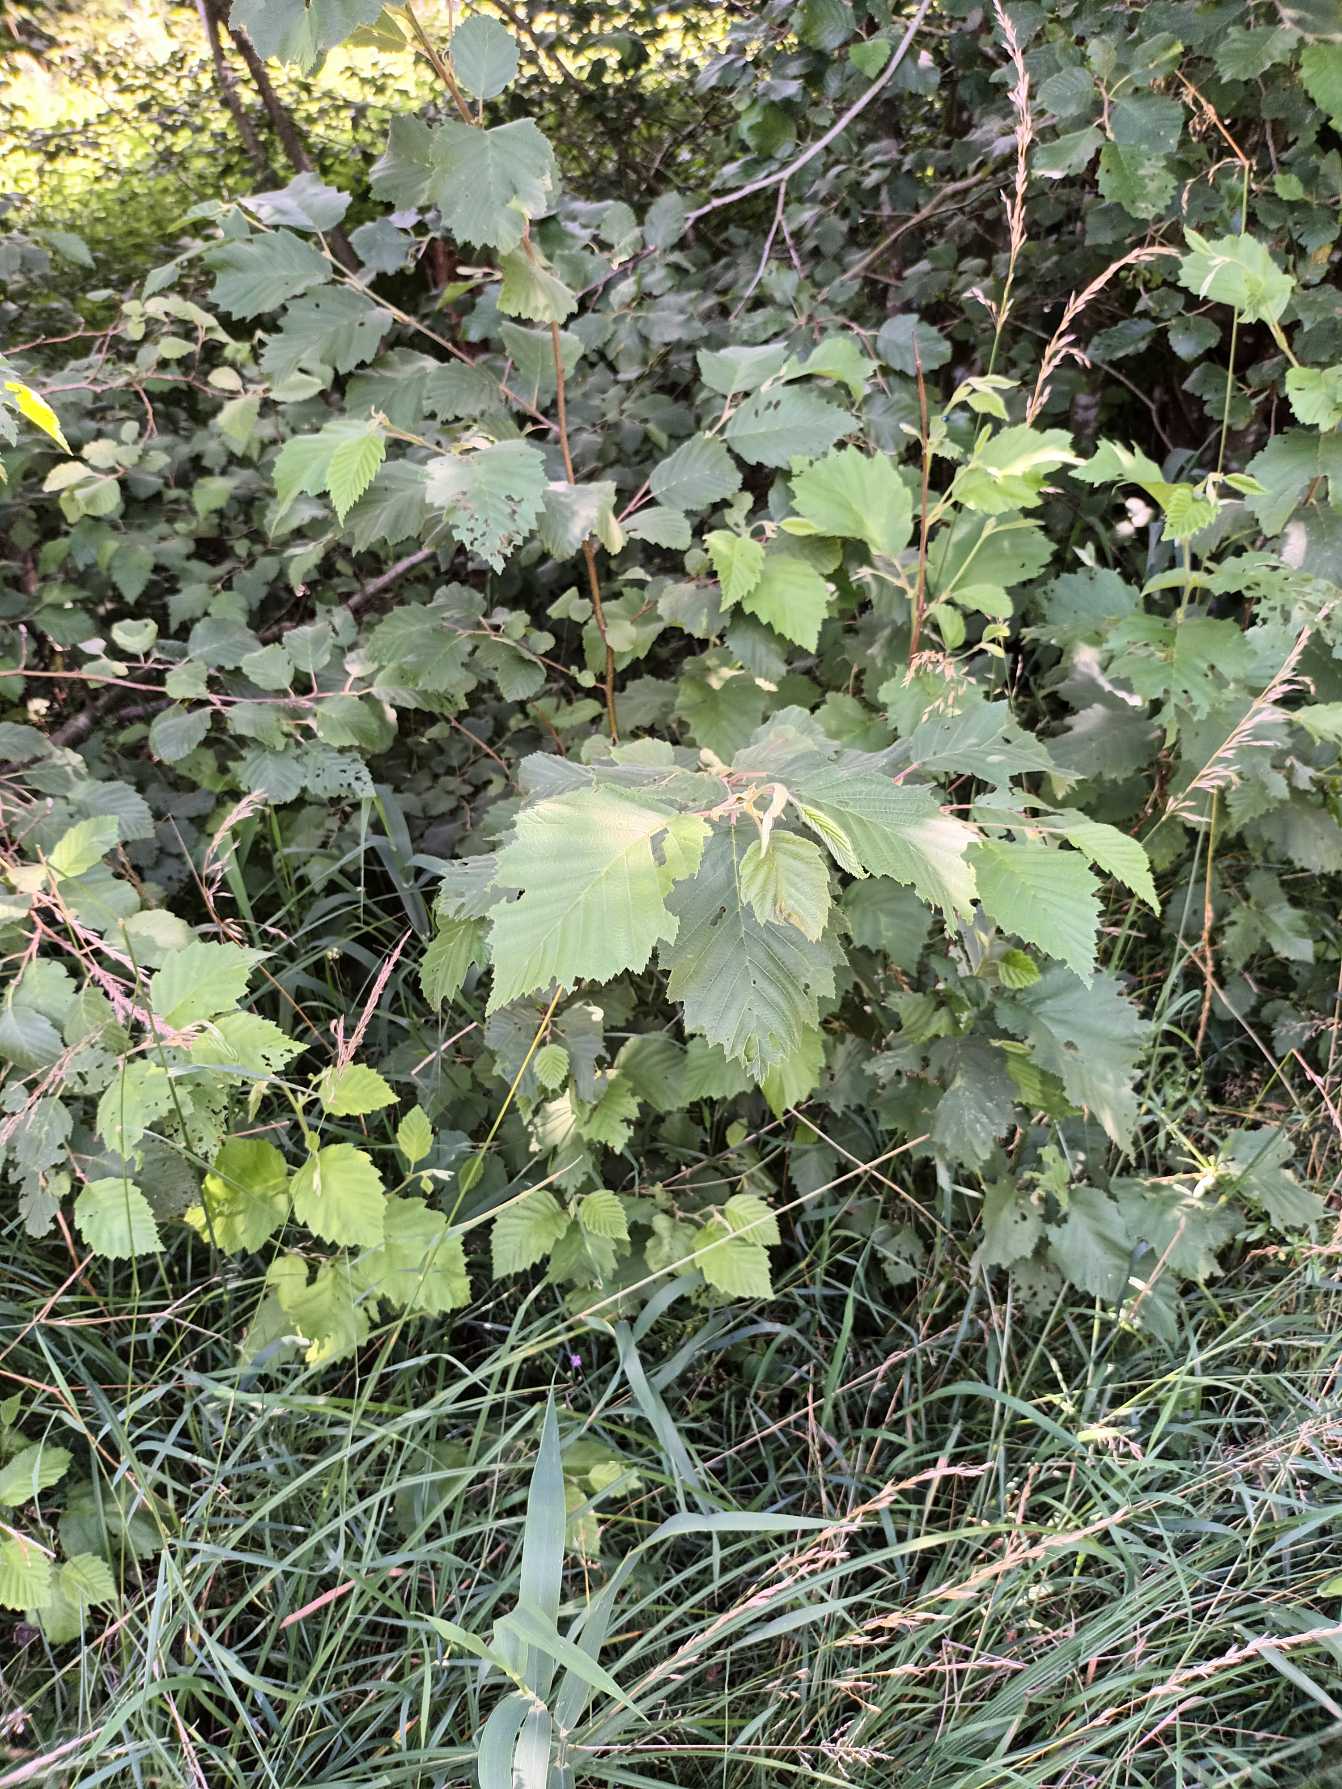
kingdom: Plantae
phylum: Tracheophyta
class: Magnoliopsida
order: Fagales
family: Betulaceae
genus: Alnus
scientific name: Alnus incana
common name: Grå-el/hvid-el
